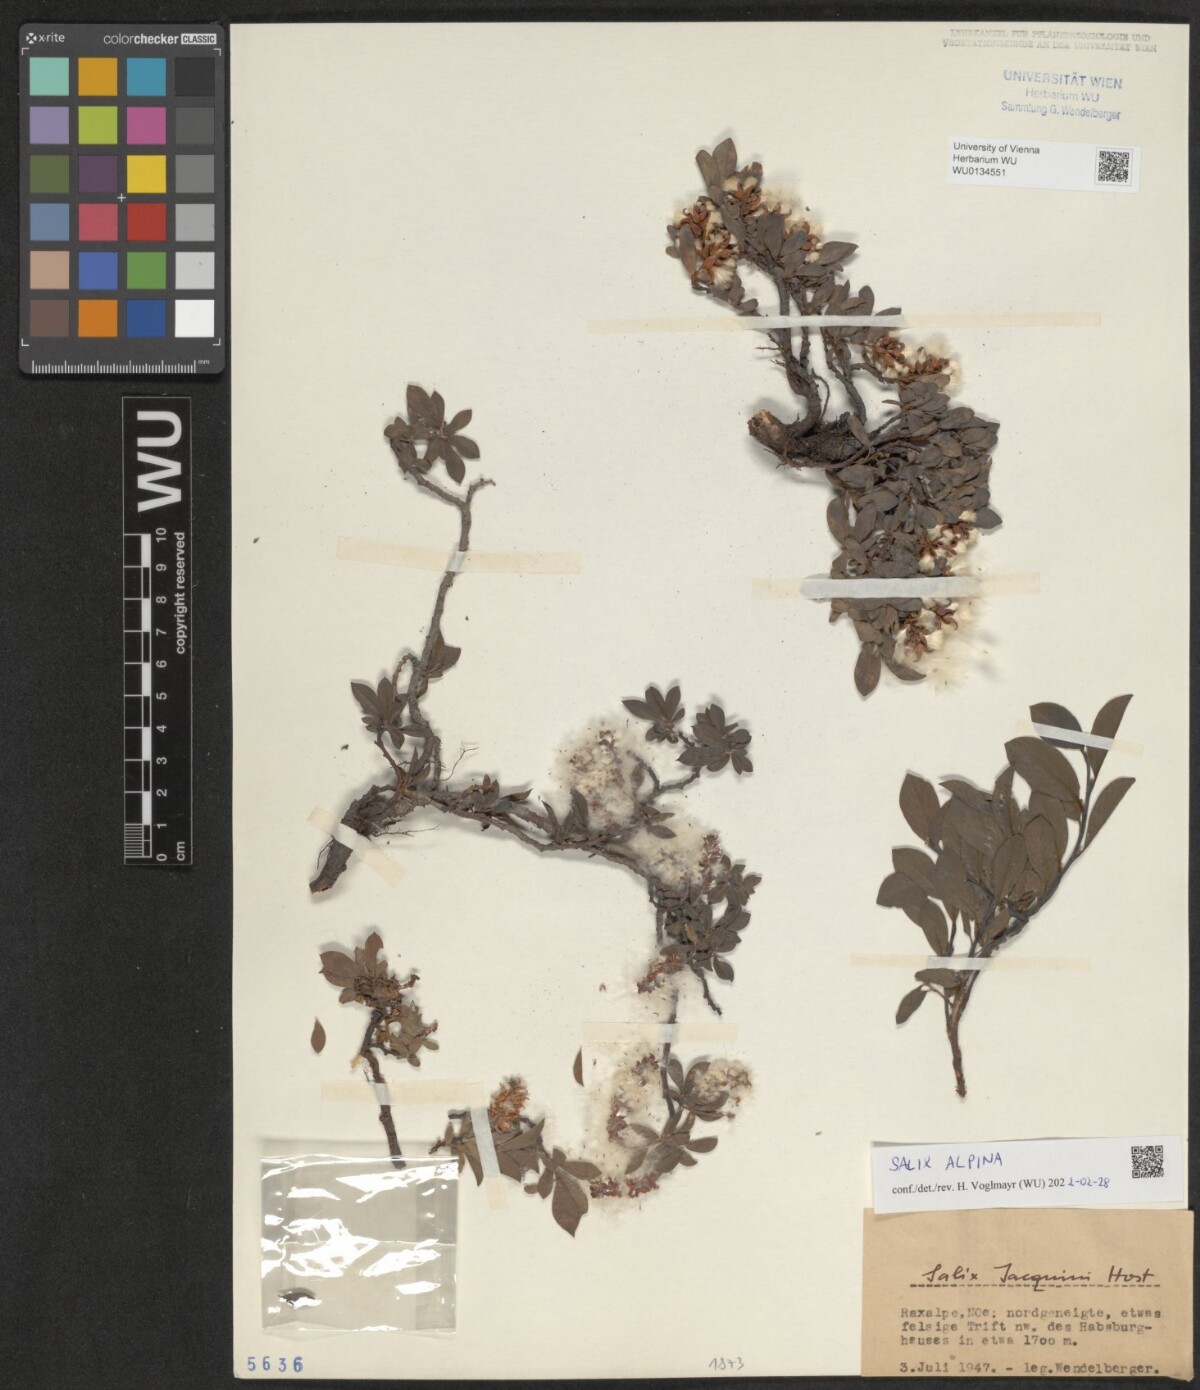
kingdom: Plantae
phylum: Tracheophyta
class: Magnoliopsida
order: Malpighiales
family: Salicaceae
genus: Salix
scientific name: Salix alpina
